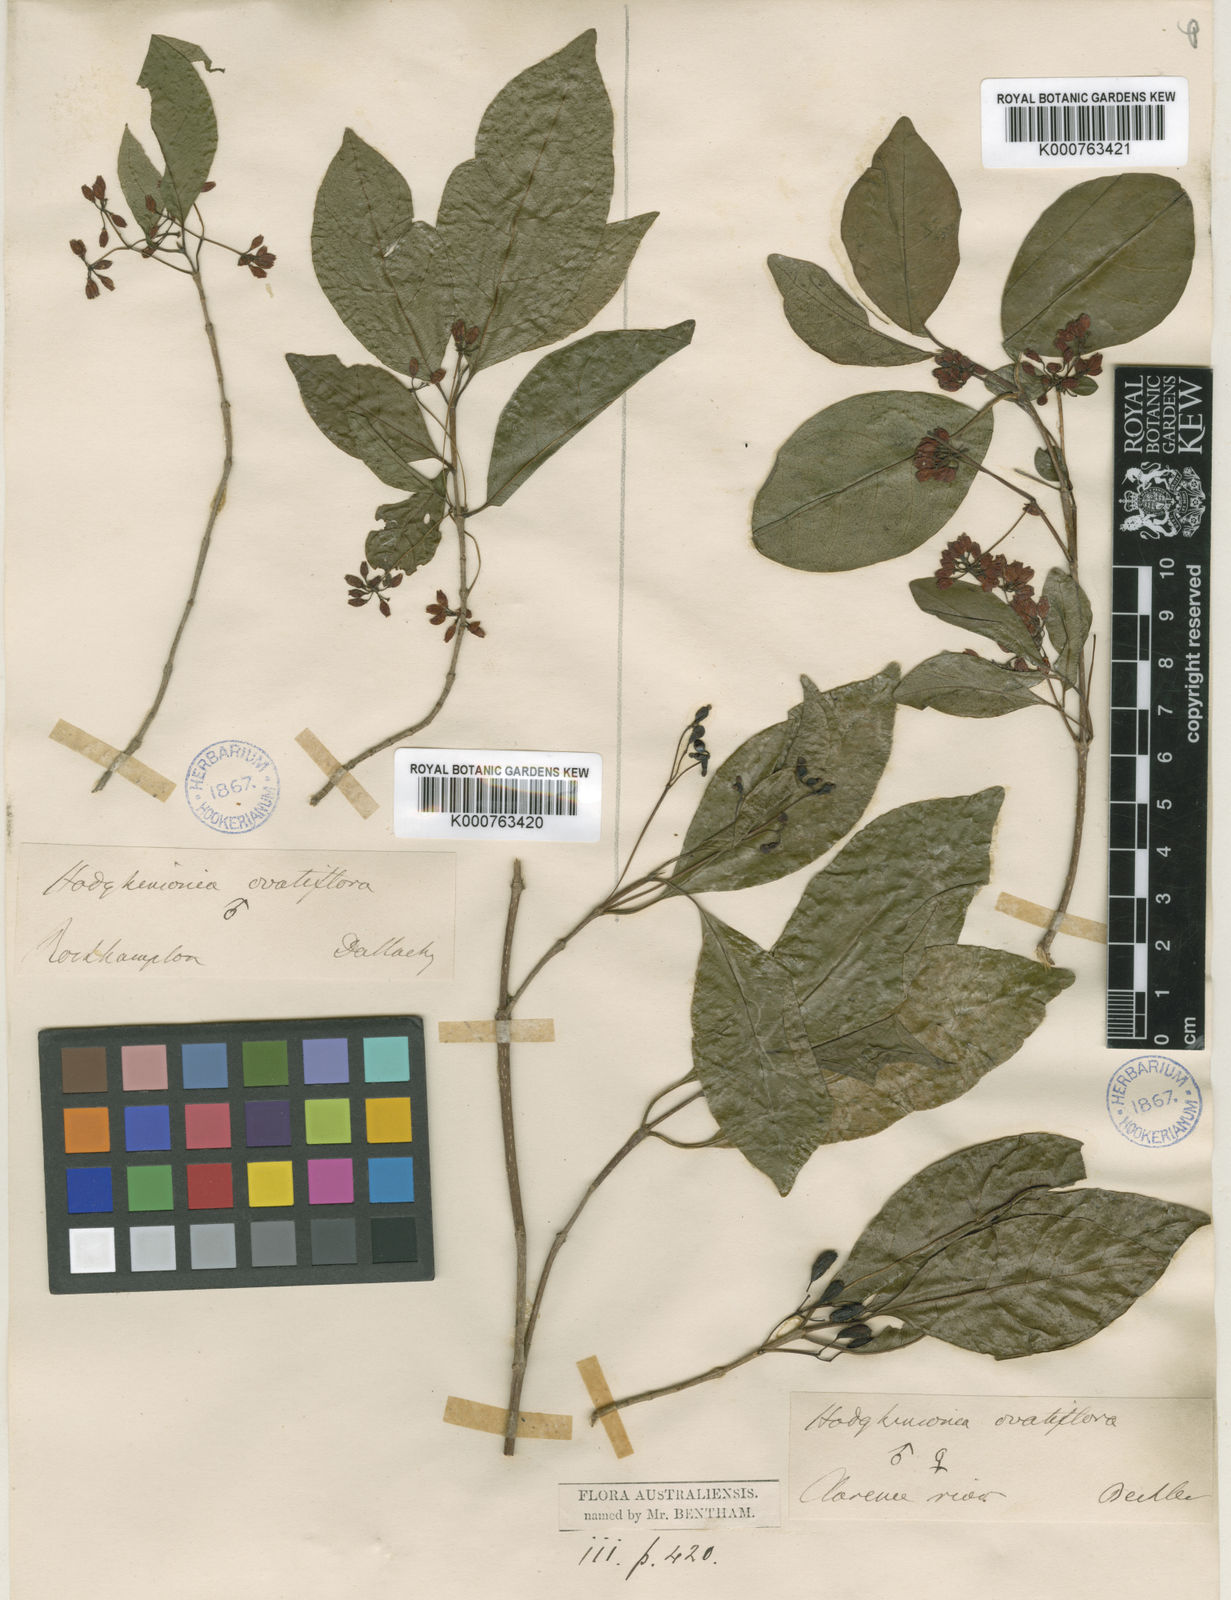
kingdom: Plantae
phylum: Tracheophyta
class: Magnoliopsida
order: Gentianales
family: Rubiaceae
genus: Hodgkinsonia
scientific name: Hodgkinsonia ovatiflora
